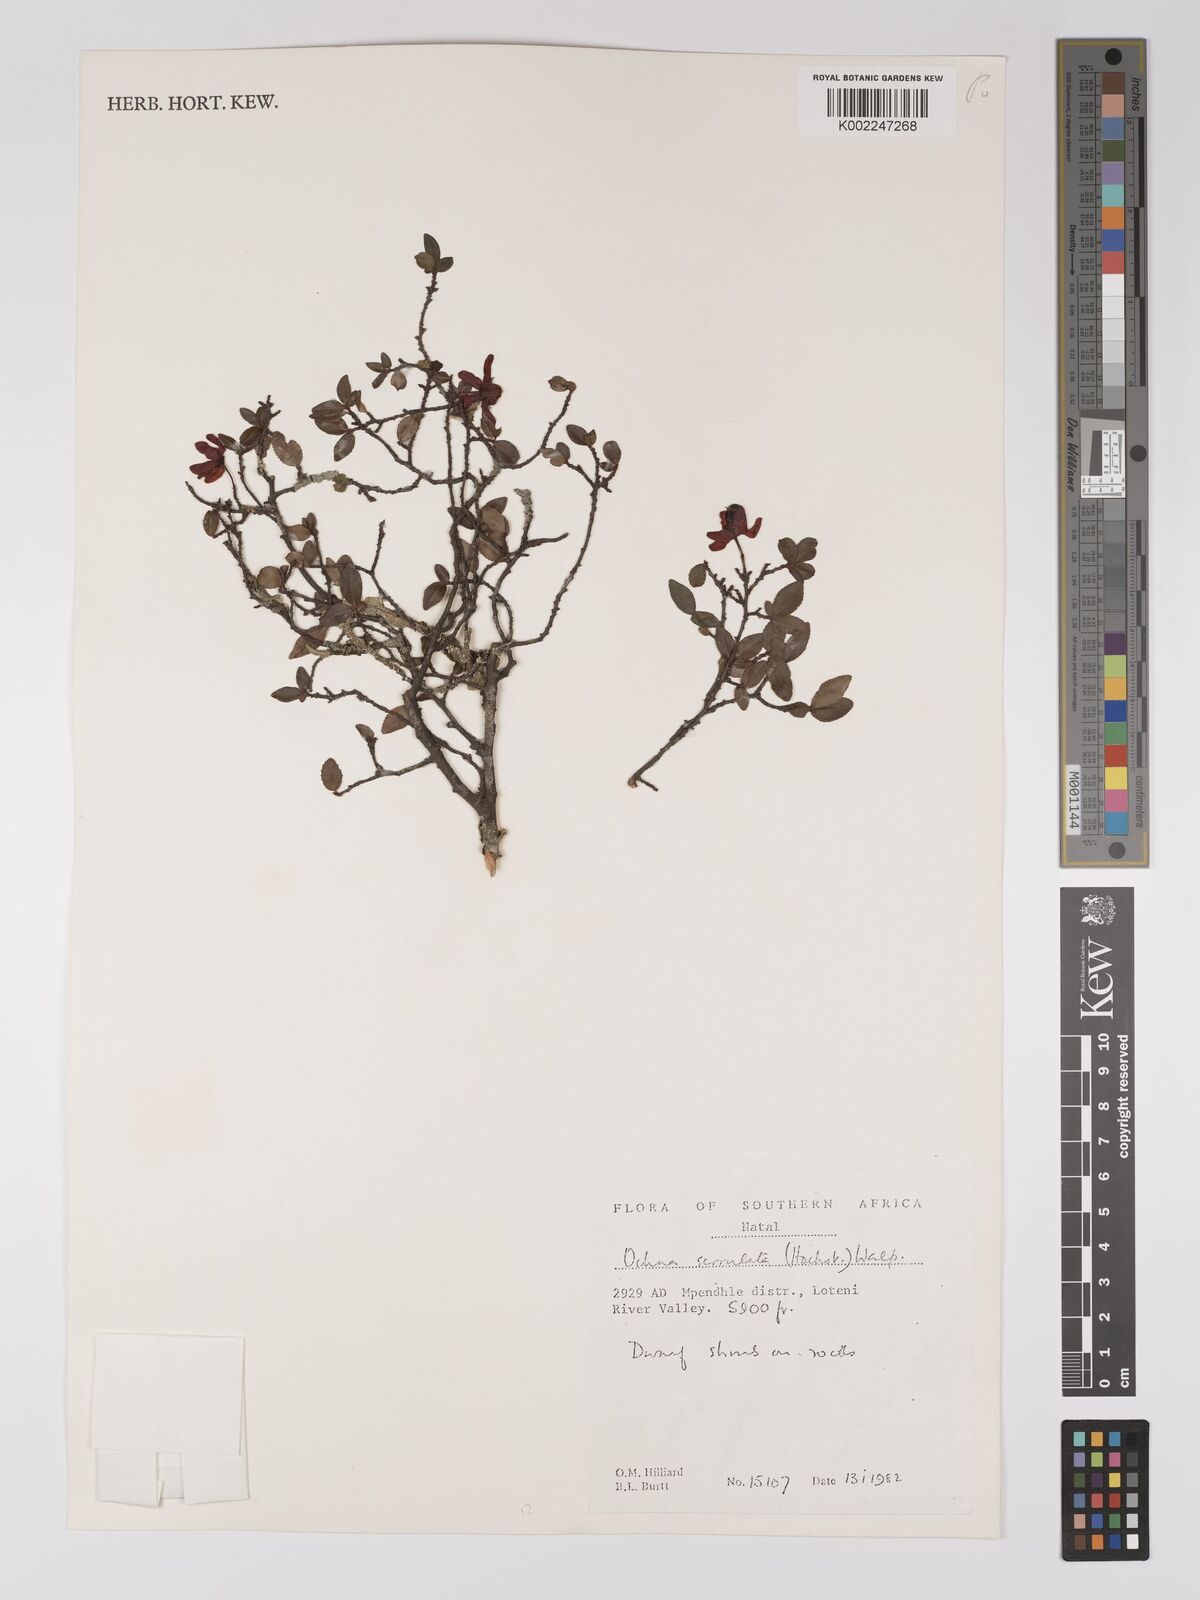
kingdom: Plantae
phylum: Tracheophyta
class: Magnoliopsida
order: Malpighiales
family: Ochnaceae
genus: Ochna
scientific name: Ochna gamostigmata
